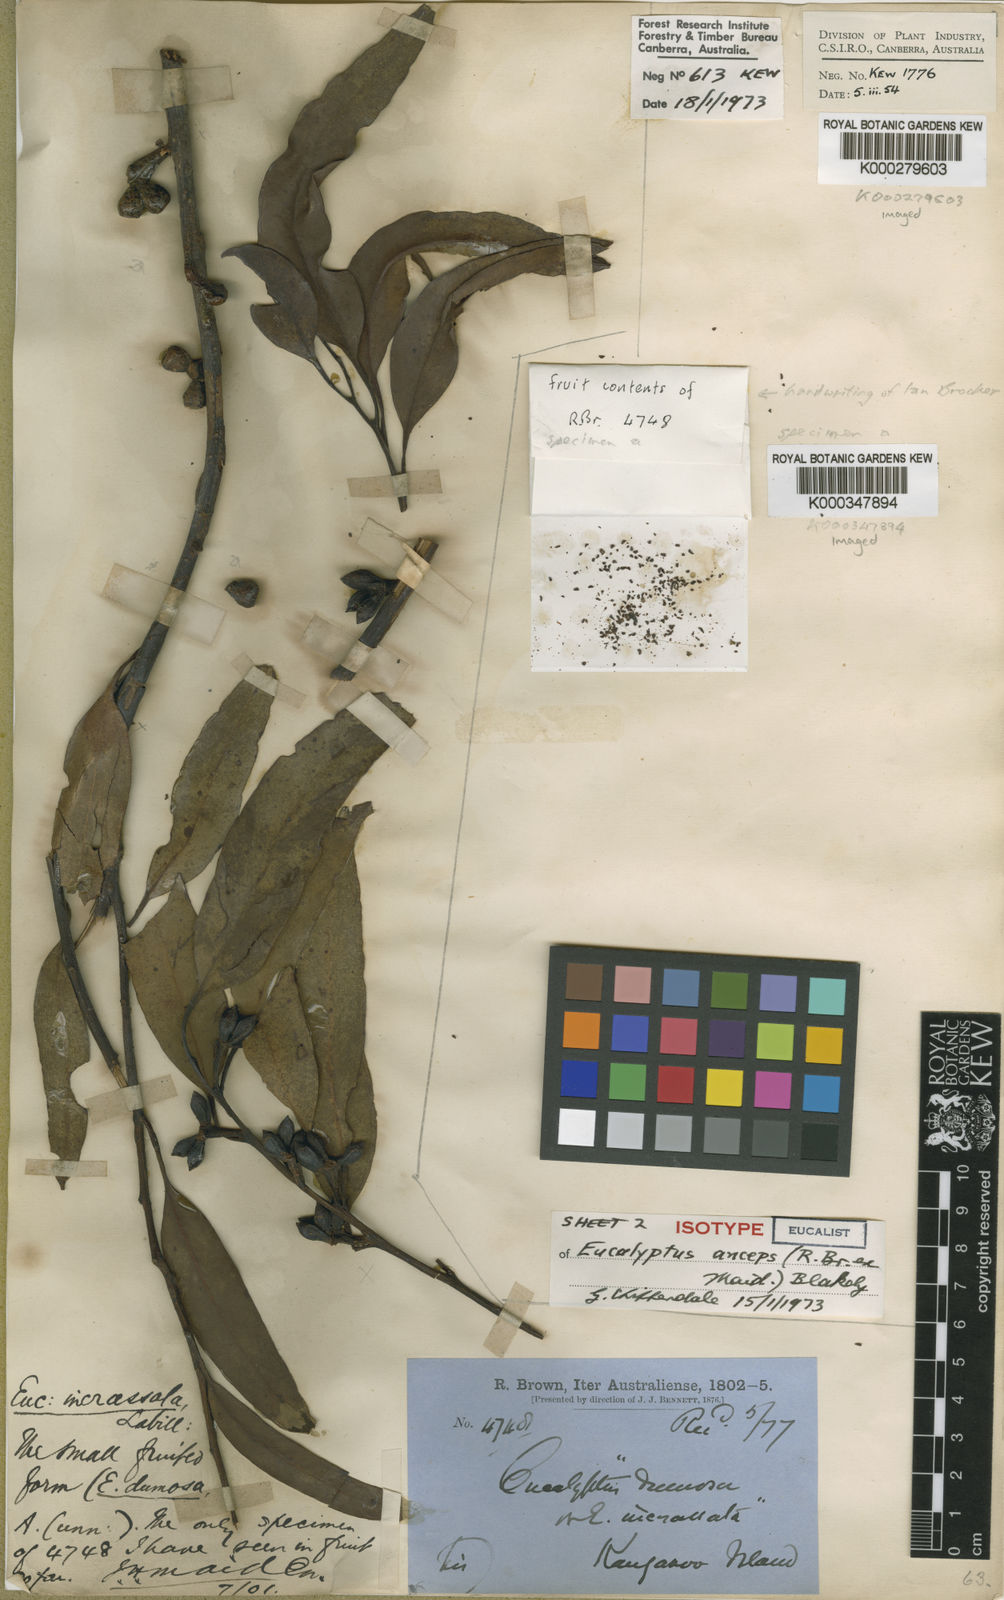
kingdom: Plantae
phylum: Tracheophyta
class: Magnoliopsida
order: Myrtales
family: Myrtaceae
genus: Eucalyptus
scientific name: Eucalyptus anceps
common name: Kangaroo island mallee
